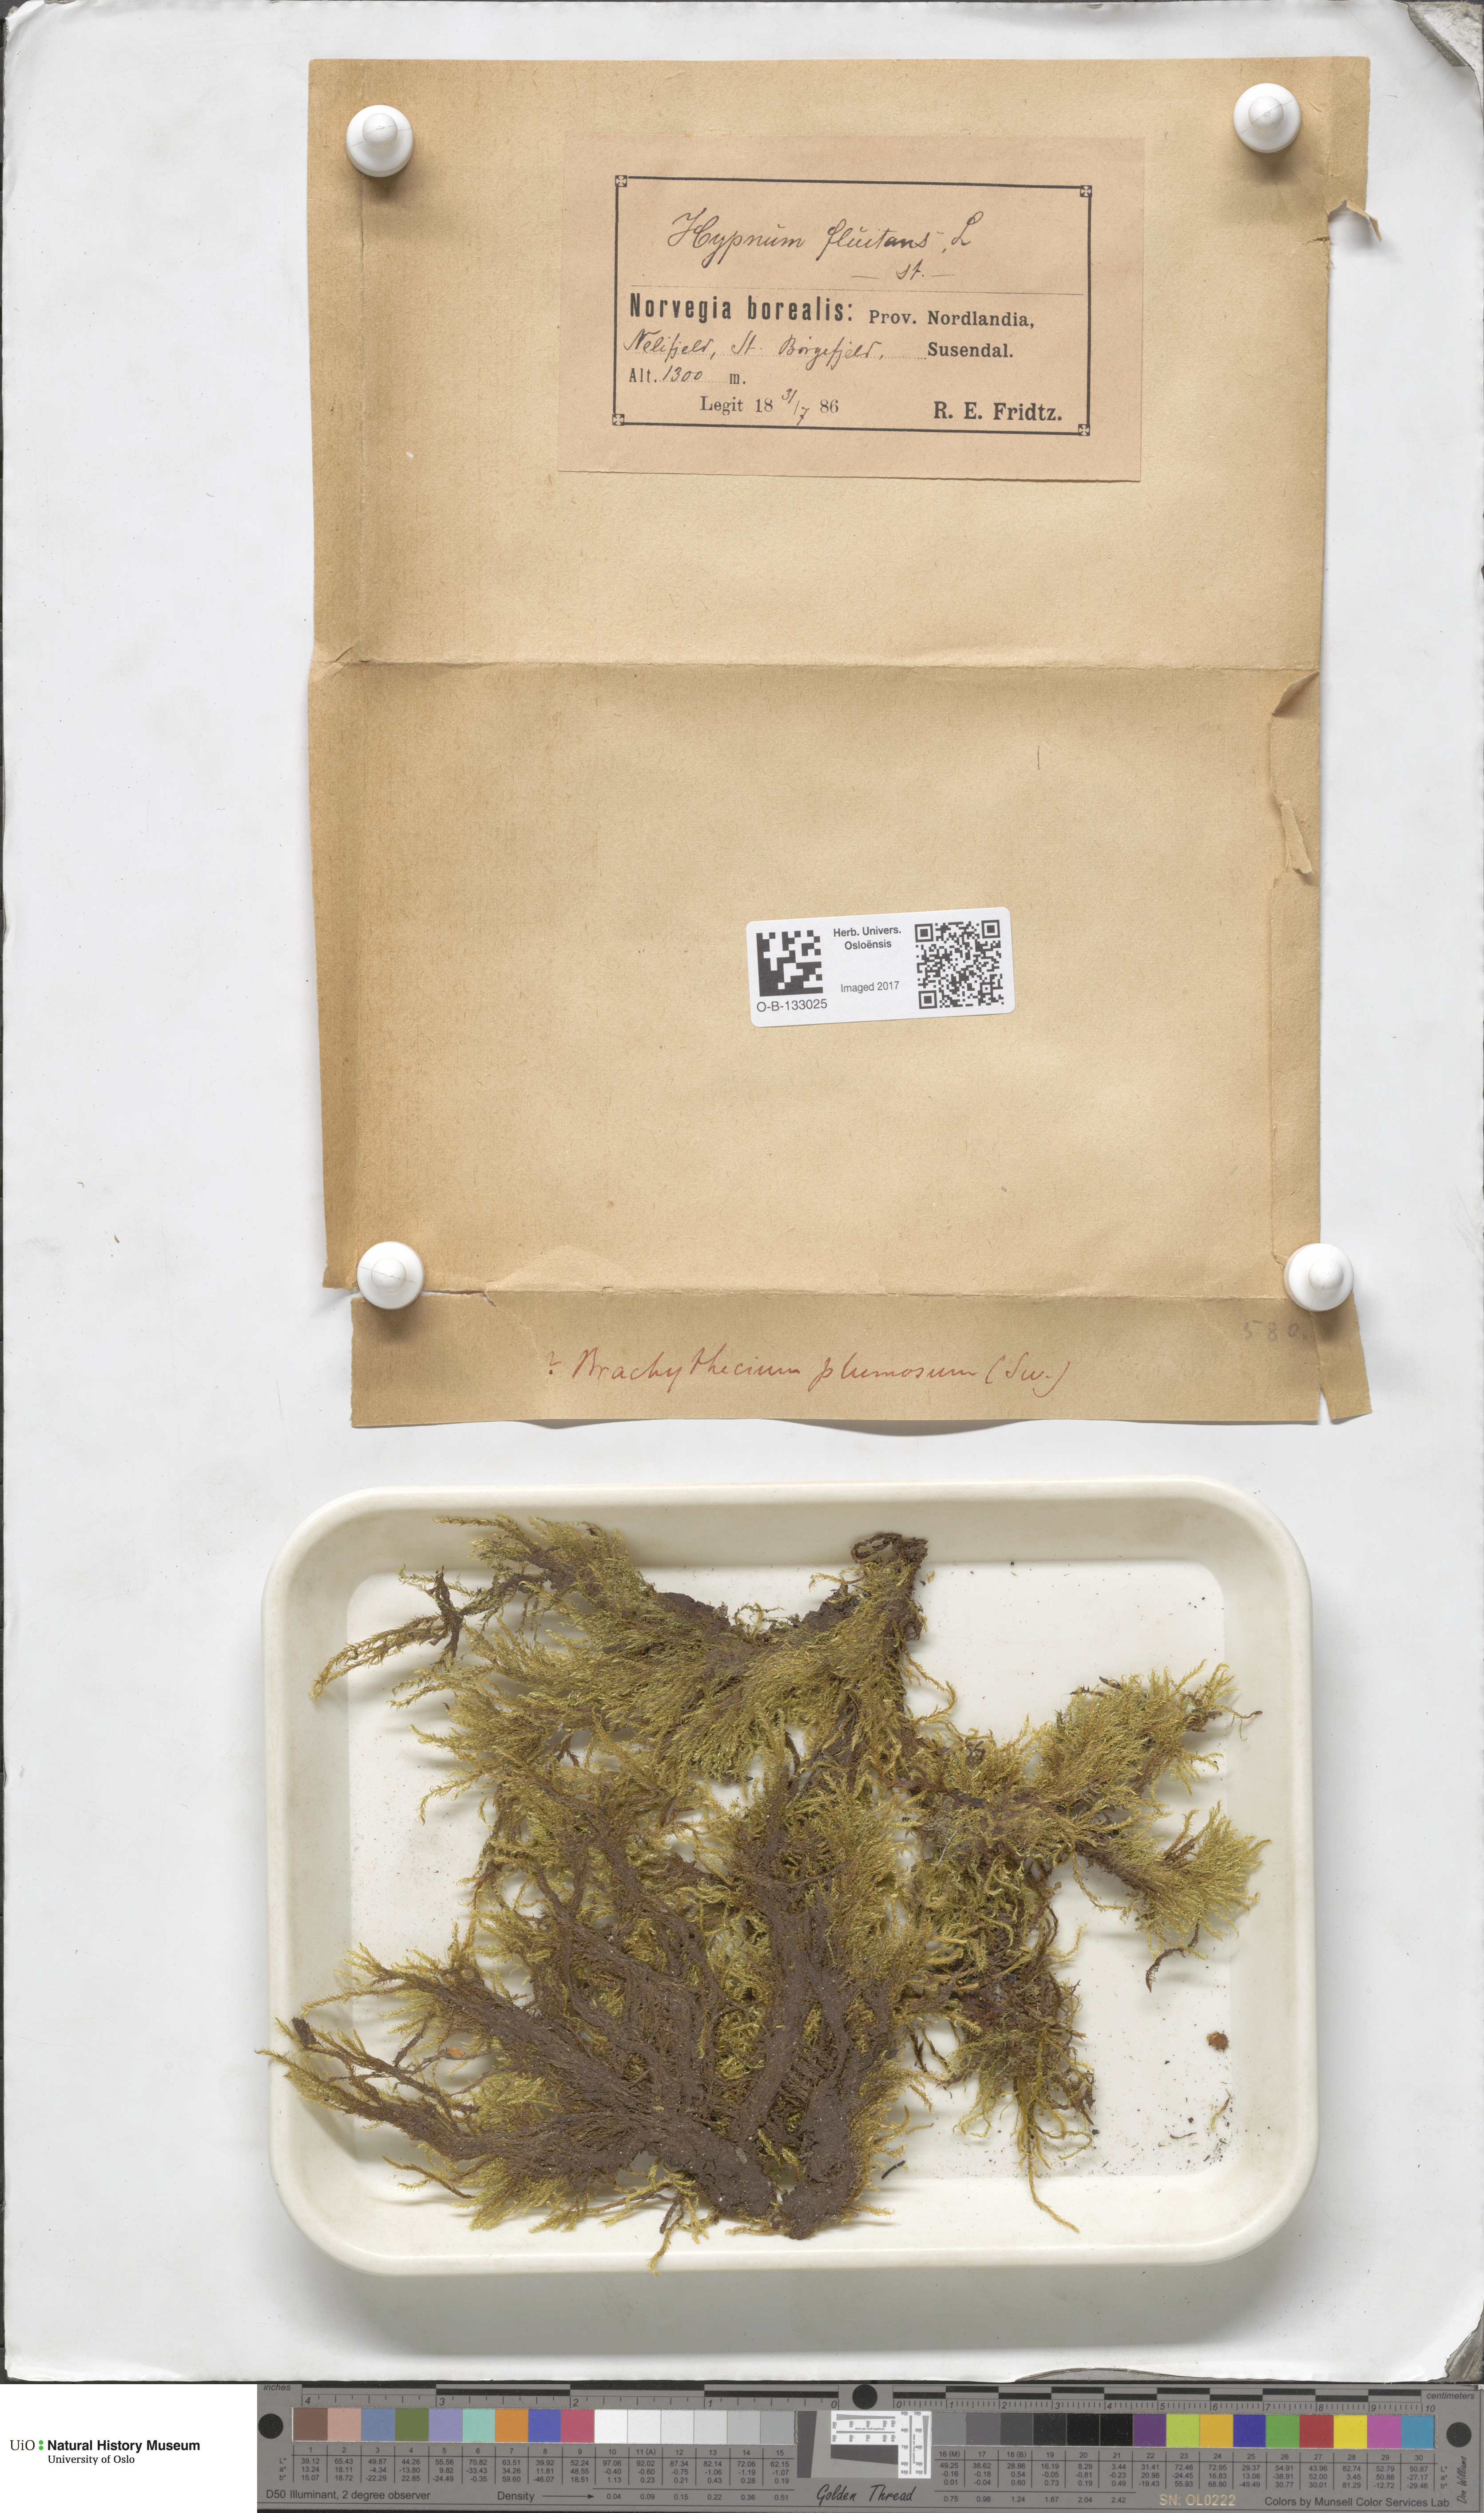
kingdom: Plantae
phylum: Bryophyta
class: Bryopsida
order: Hypnales
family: Brachytheciaceae
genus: Sciuro-hypnum
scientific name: Sciuro-hypnum plumosum
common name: Rusty feather-moss
